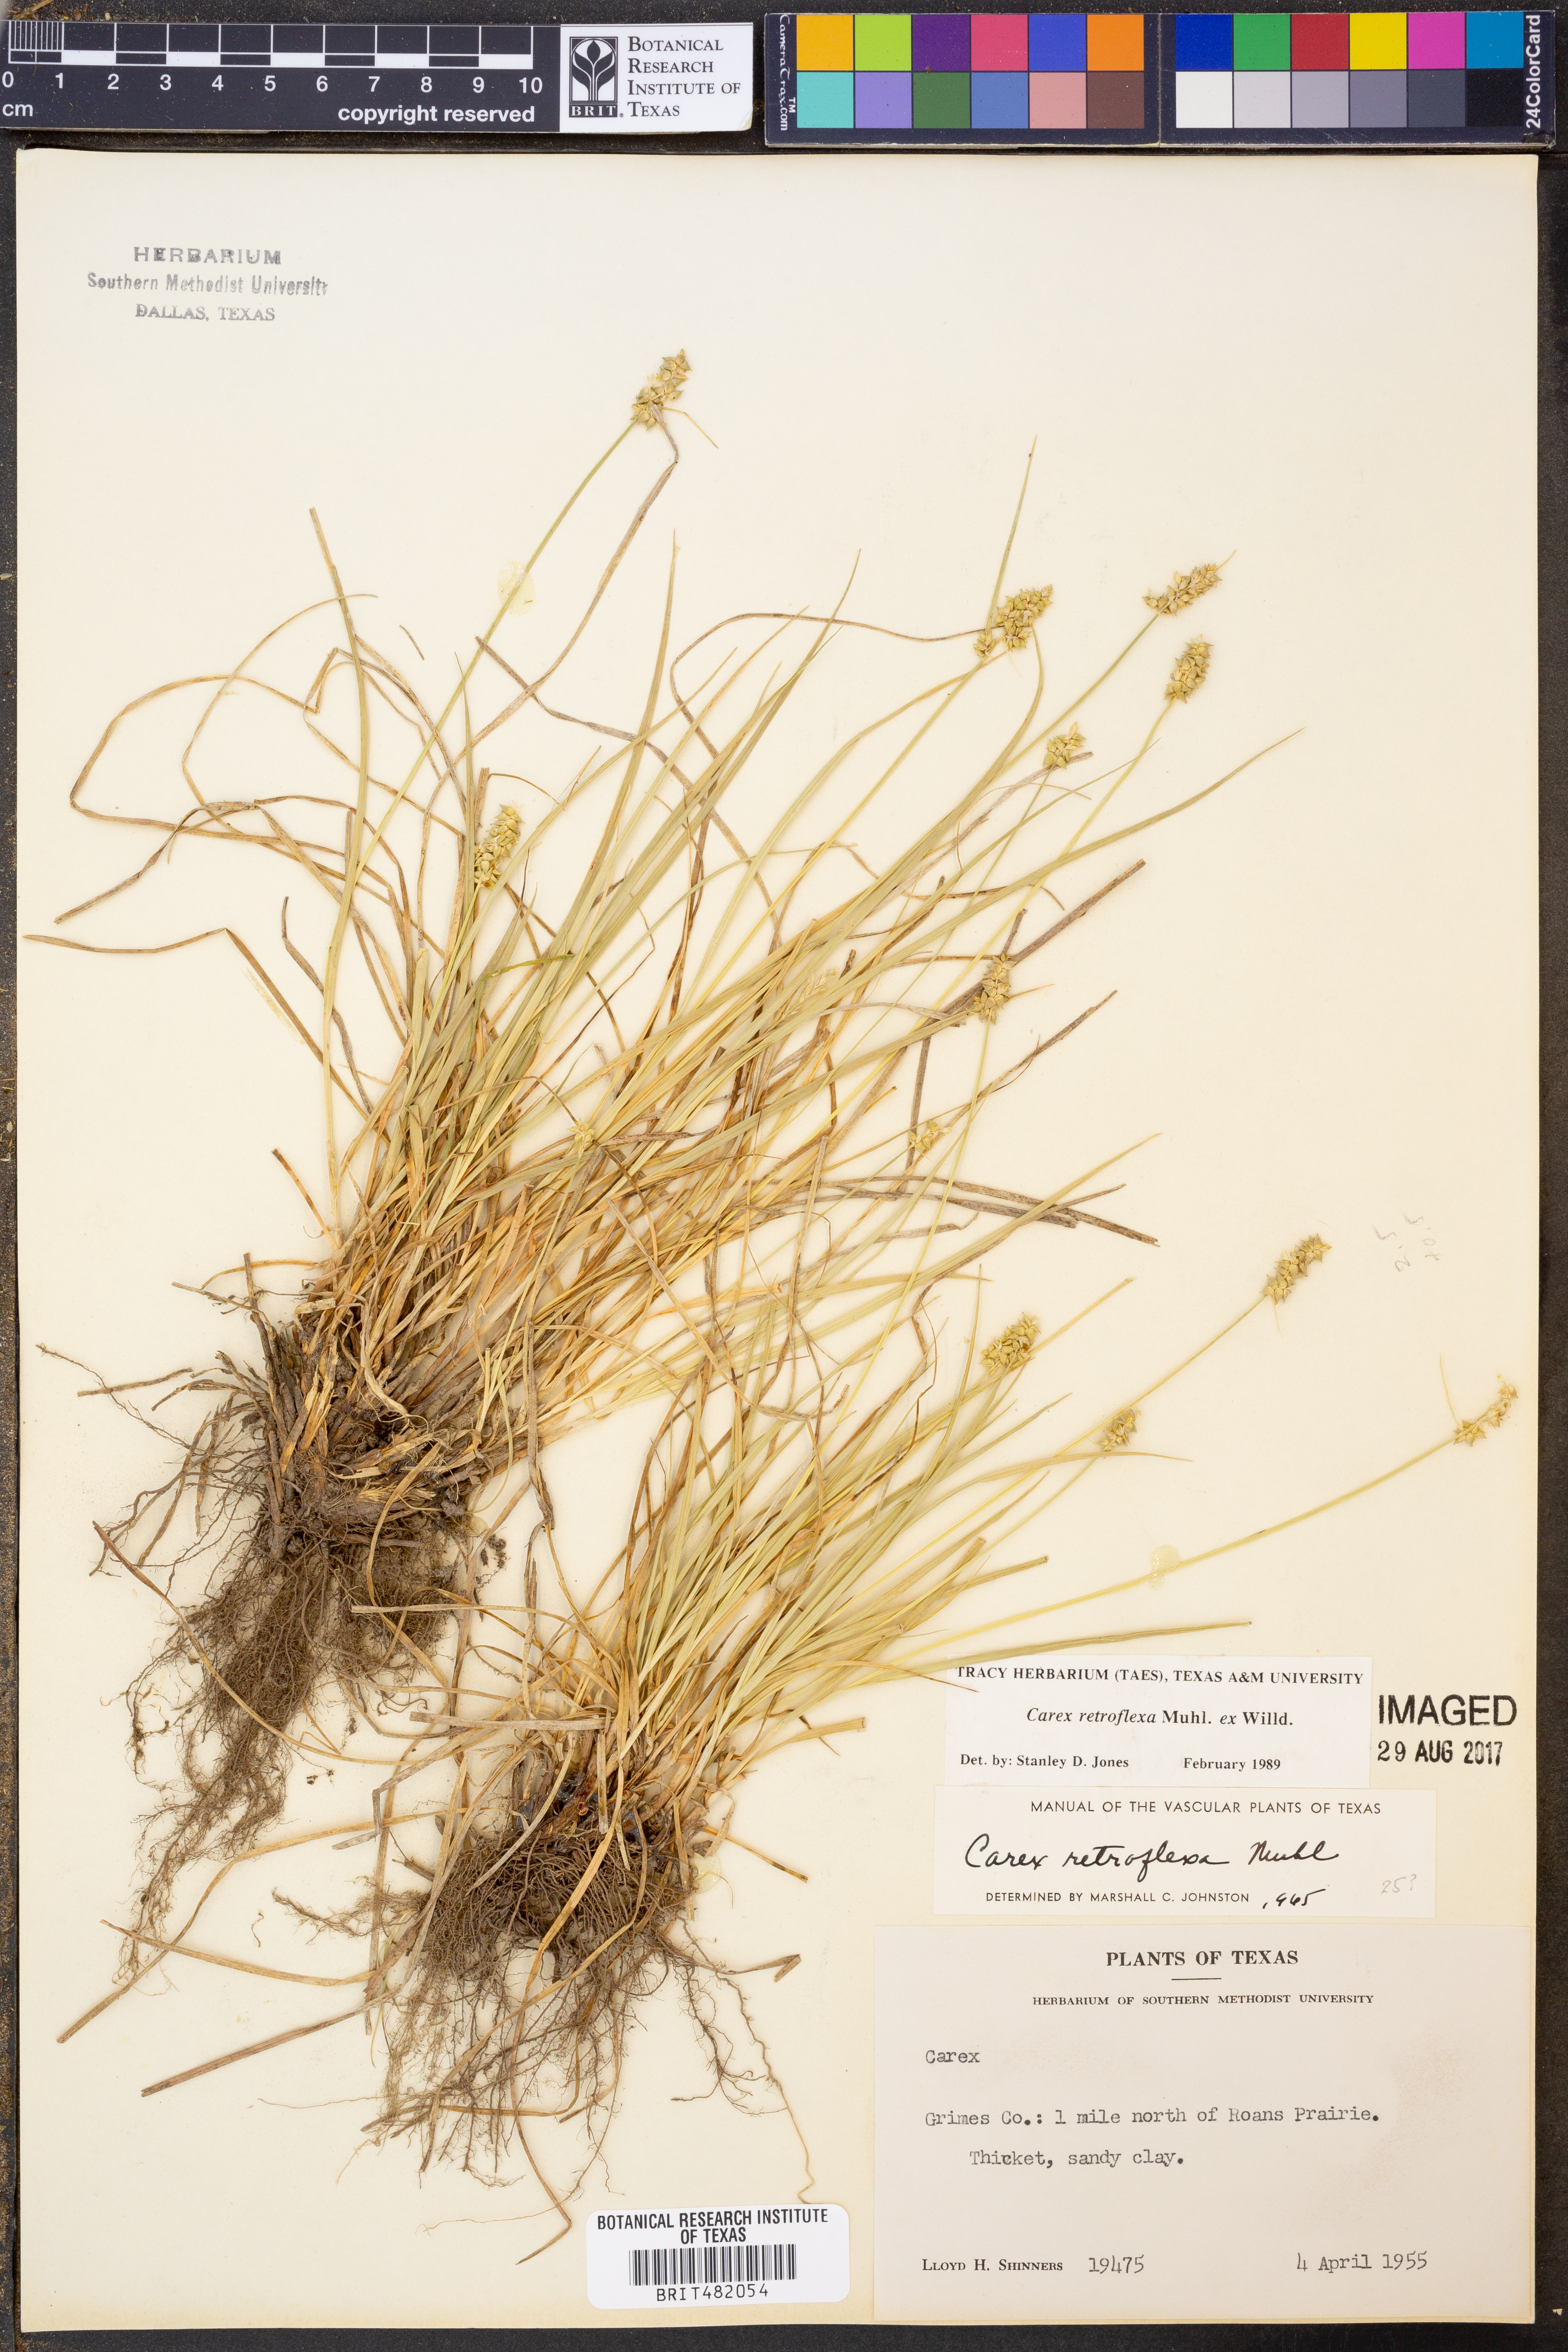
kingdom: Plantae
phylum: Tracheophyta
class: Liliopsida
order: Poales
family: Cyperaceae
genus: Carex
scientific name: Carex retroflexa
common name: Reflexed sedge
